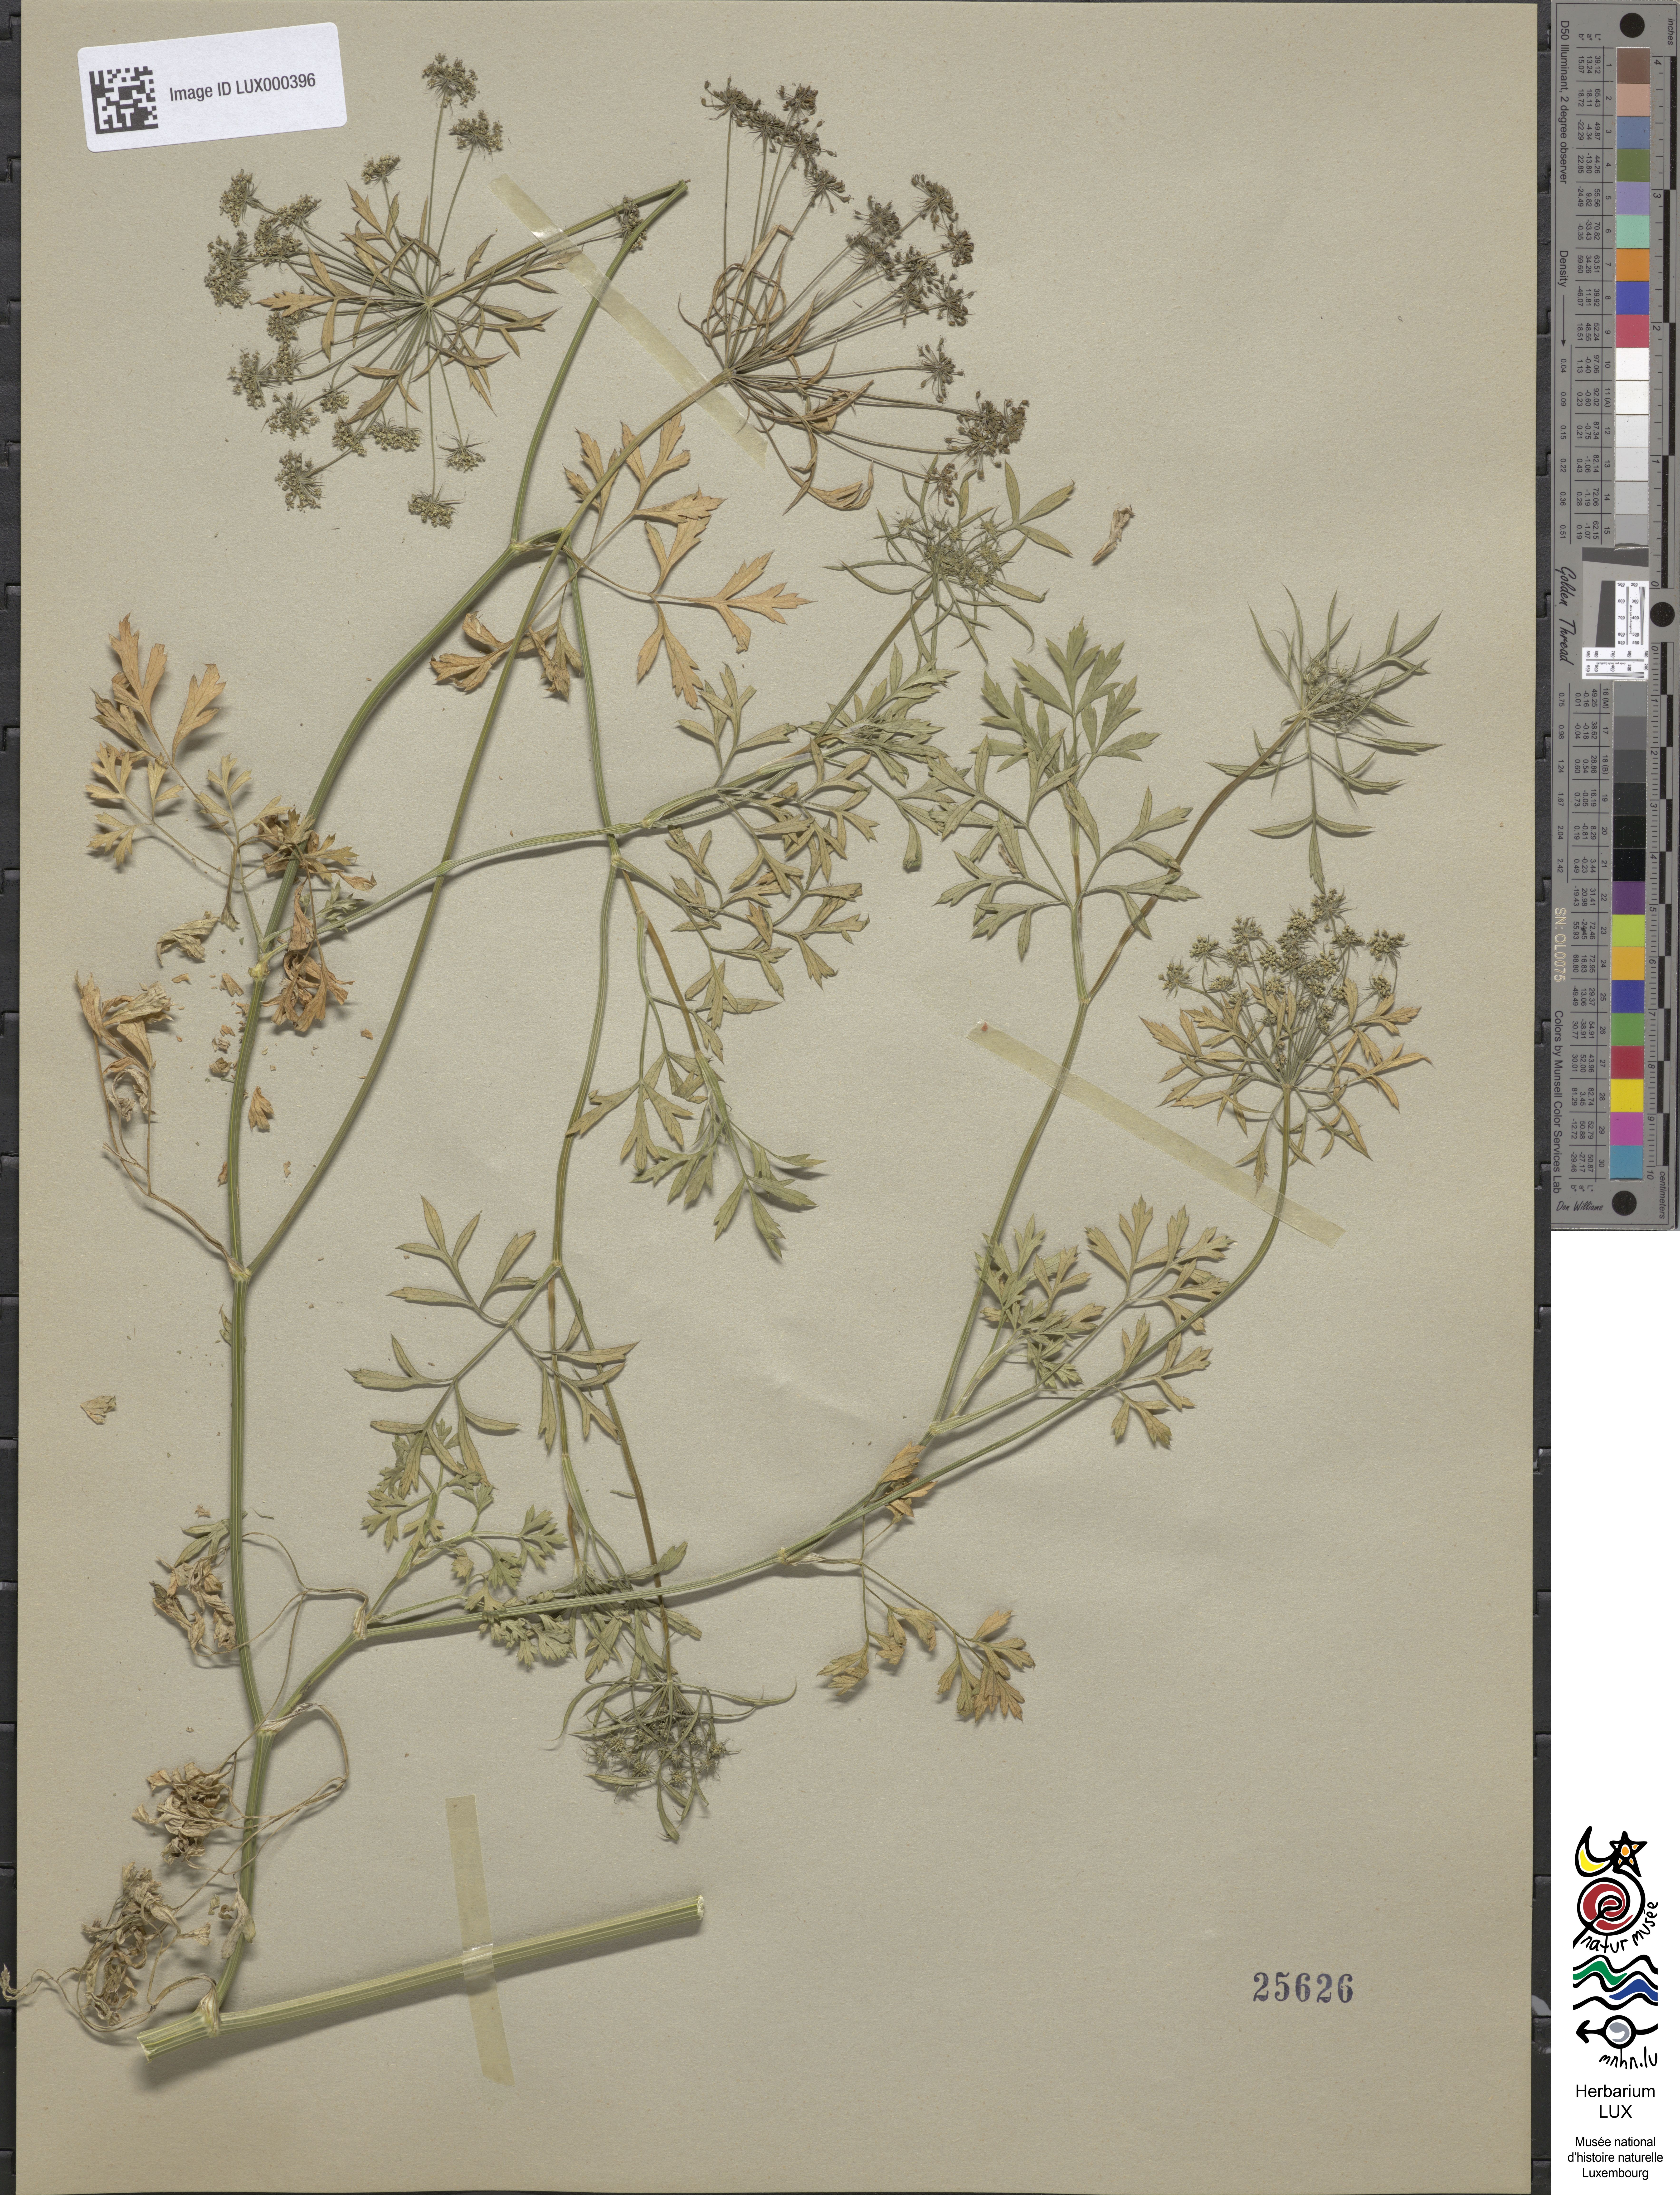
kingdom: Plantae
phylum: Tracheophyta
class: Magnoliopsida
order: Apiales
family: Apiaceae
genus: Ammi
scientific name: Ammi majus
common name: Bullwort
